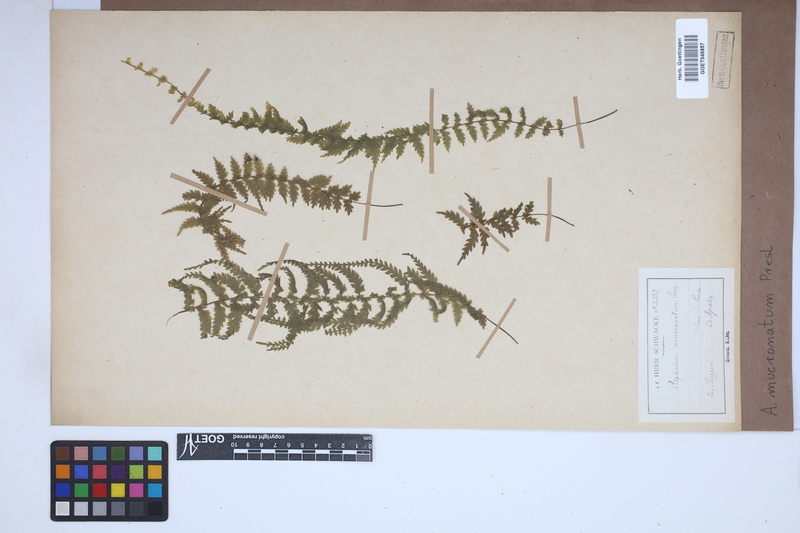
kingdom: Plantae
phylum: Tracheophyta
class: Polypodiopsida
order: Polypodiales
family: Aspleniaceae
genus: Asplenium
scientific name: Asplenium mucronatum
